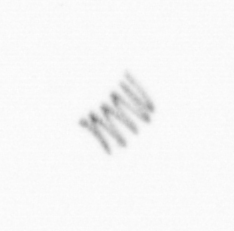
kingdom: Chromista
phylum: Ochrophyta
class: Bacillariophyceae
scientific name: Bacillariophyceae
